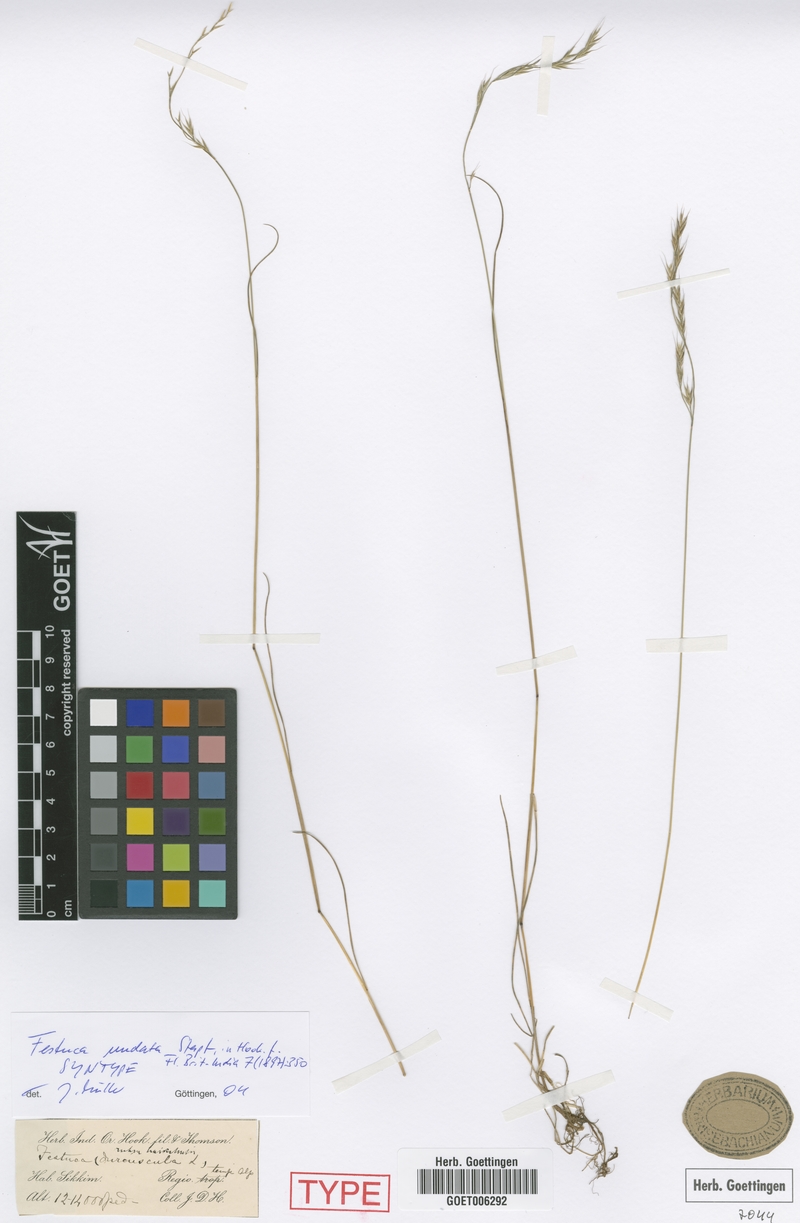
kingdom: Plantae
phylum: Tracheophyta
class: Liliopsida
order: Poales
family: Poaceae
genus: Festuca
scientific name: Festuca undata
